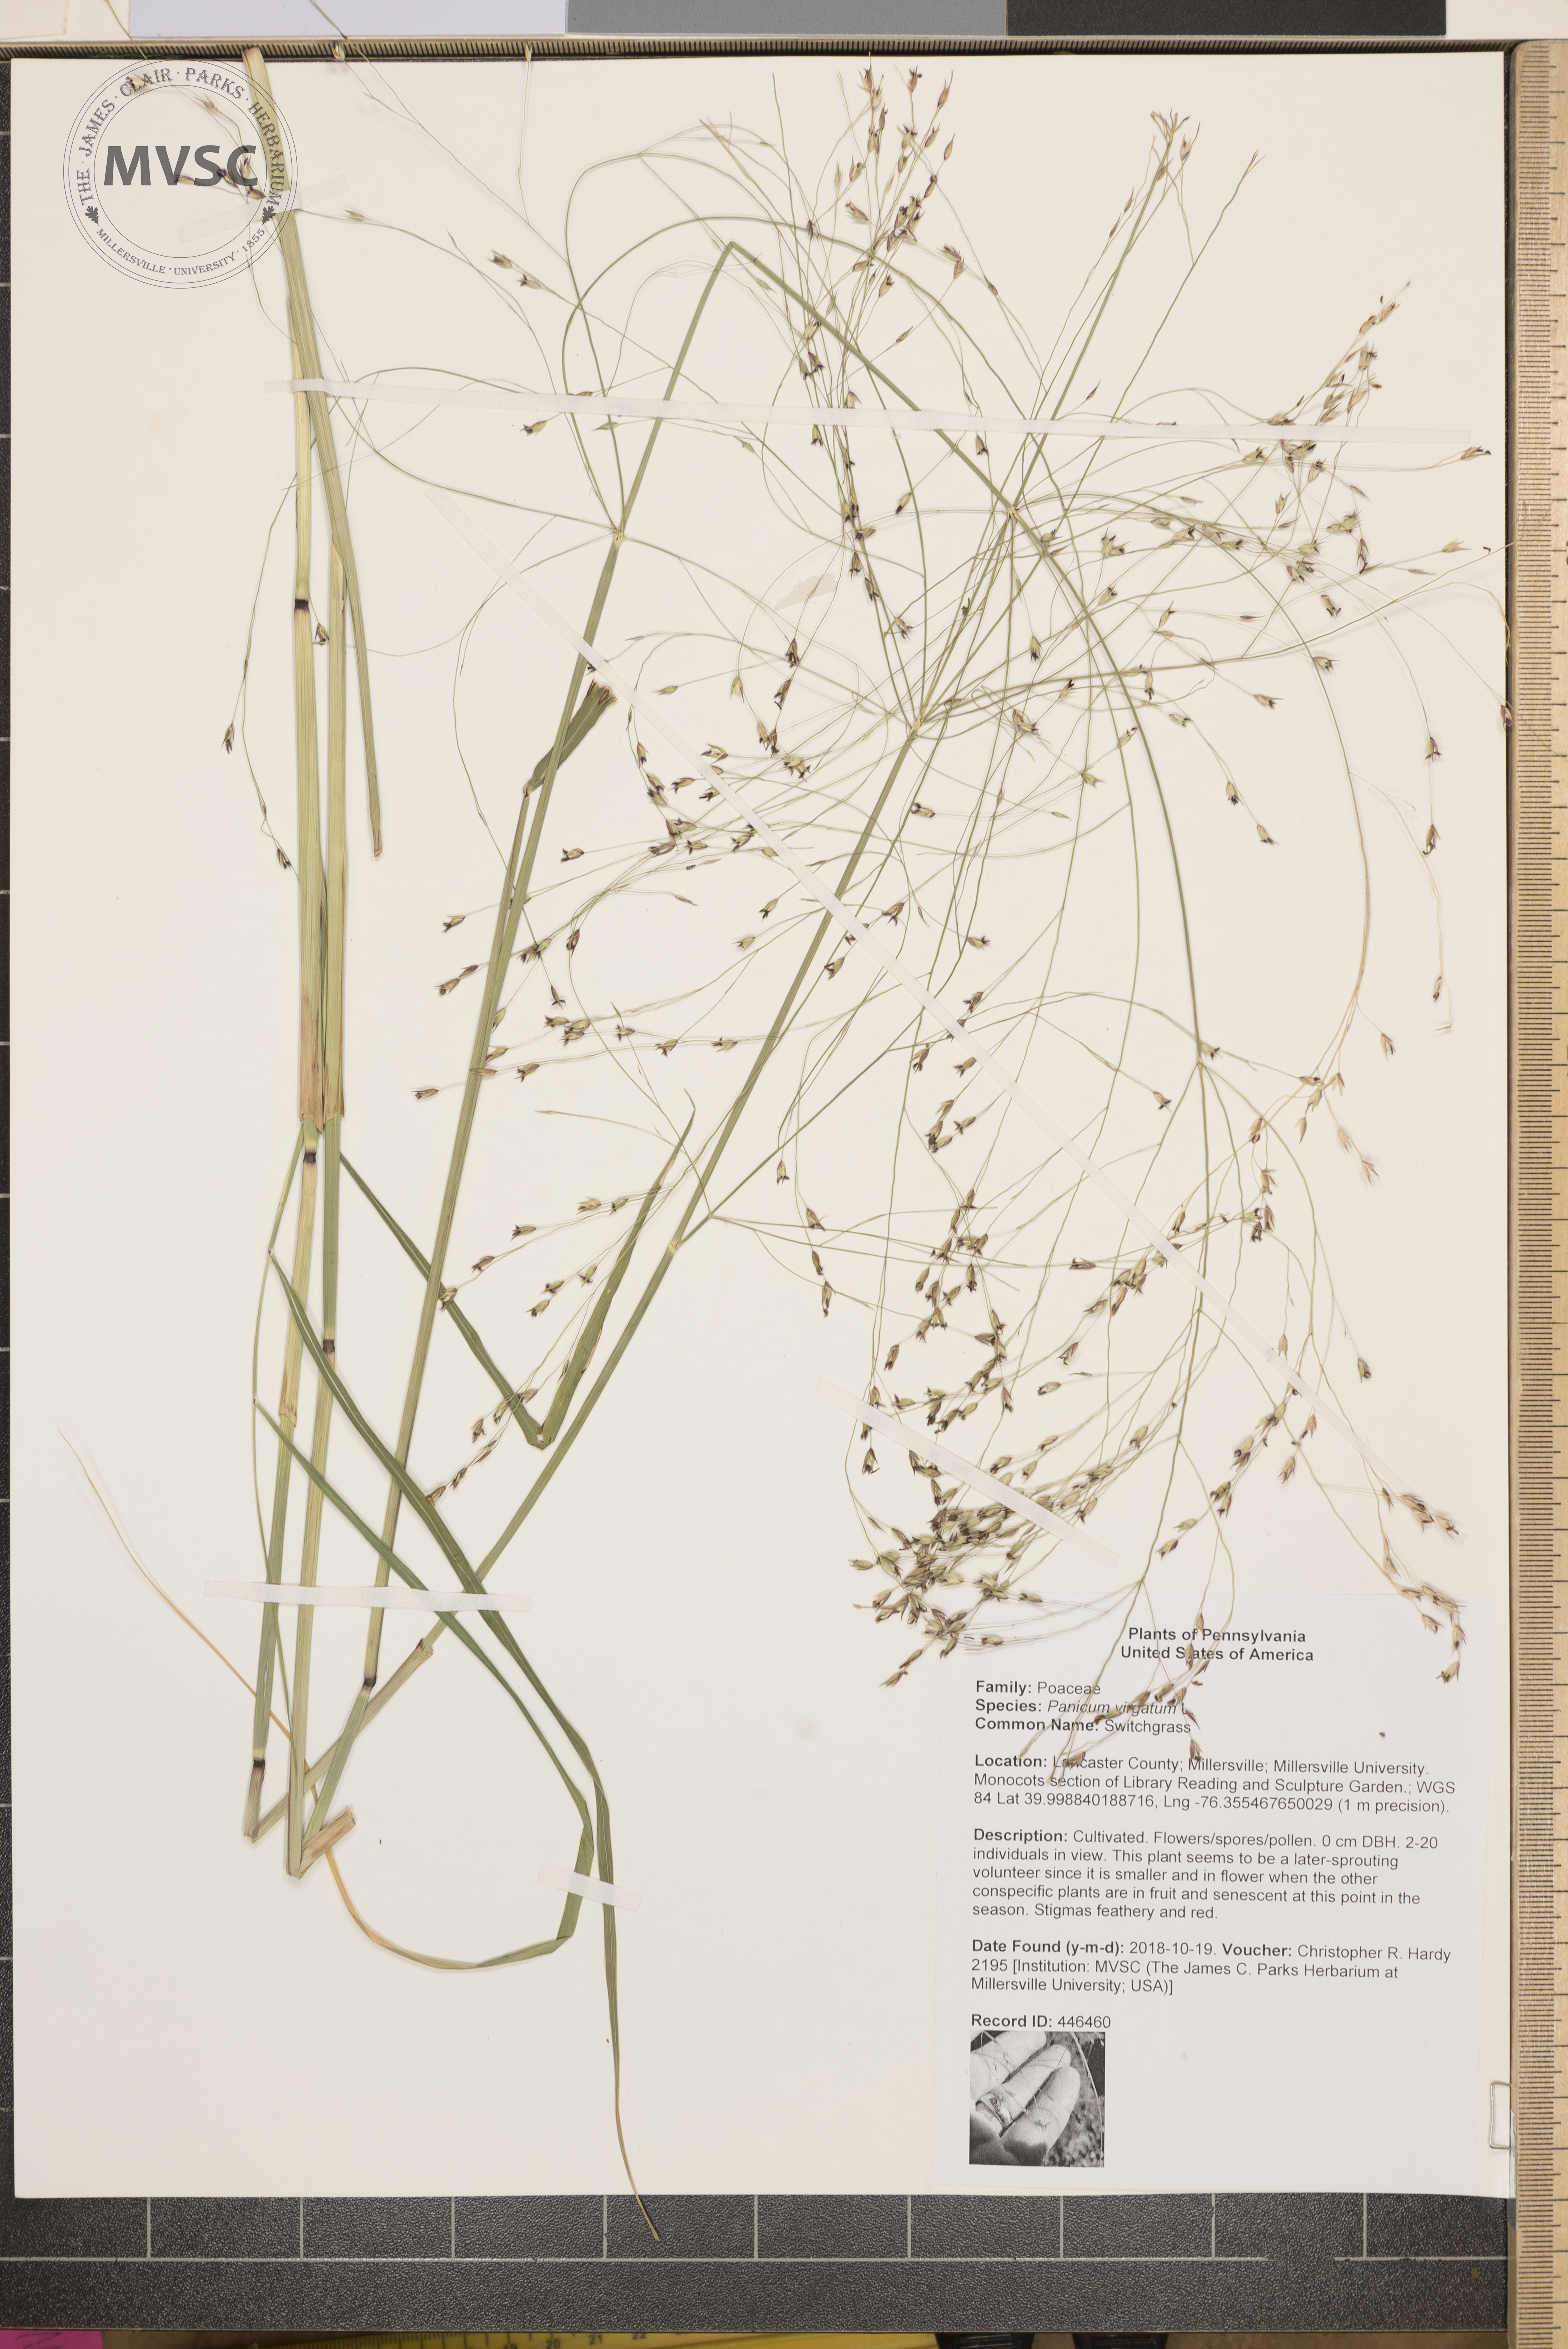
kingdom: Plantae
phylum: Tracheophyta
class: Liliopsida
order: Poales
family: Poaceae
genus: Panicum
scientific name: Panicum virgatum
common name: Switchgrass
